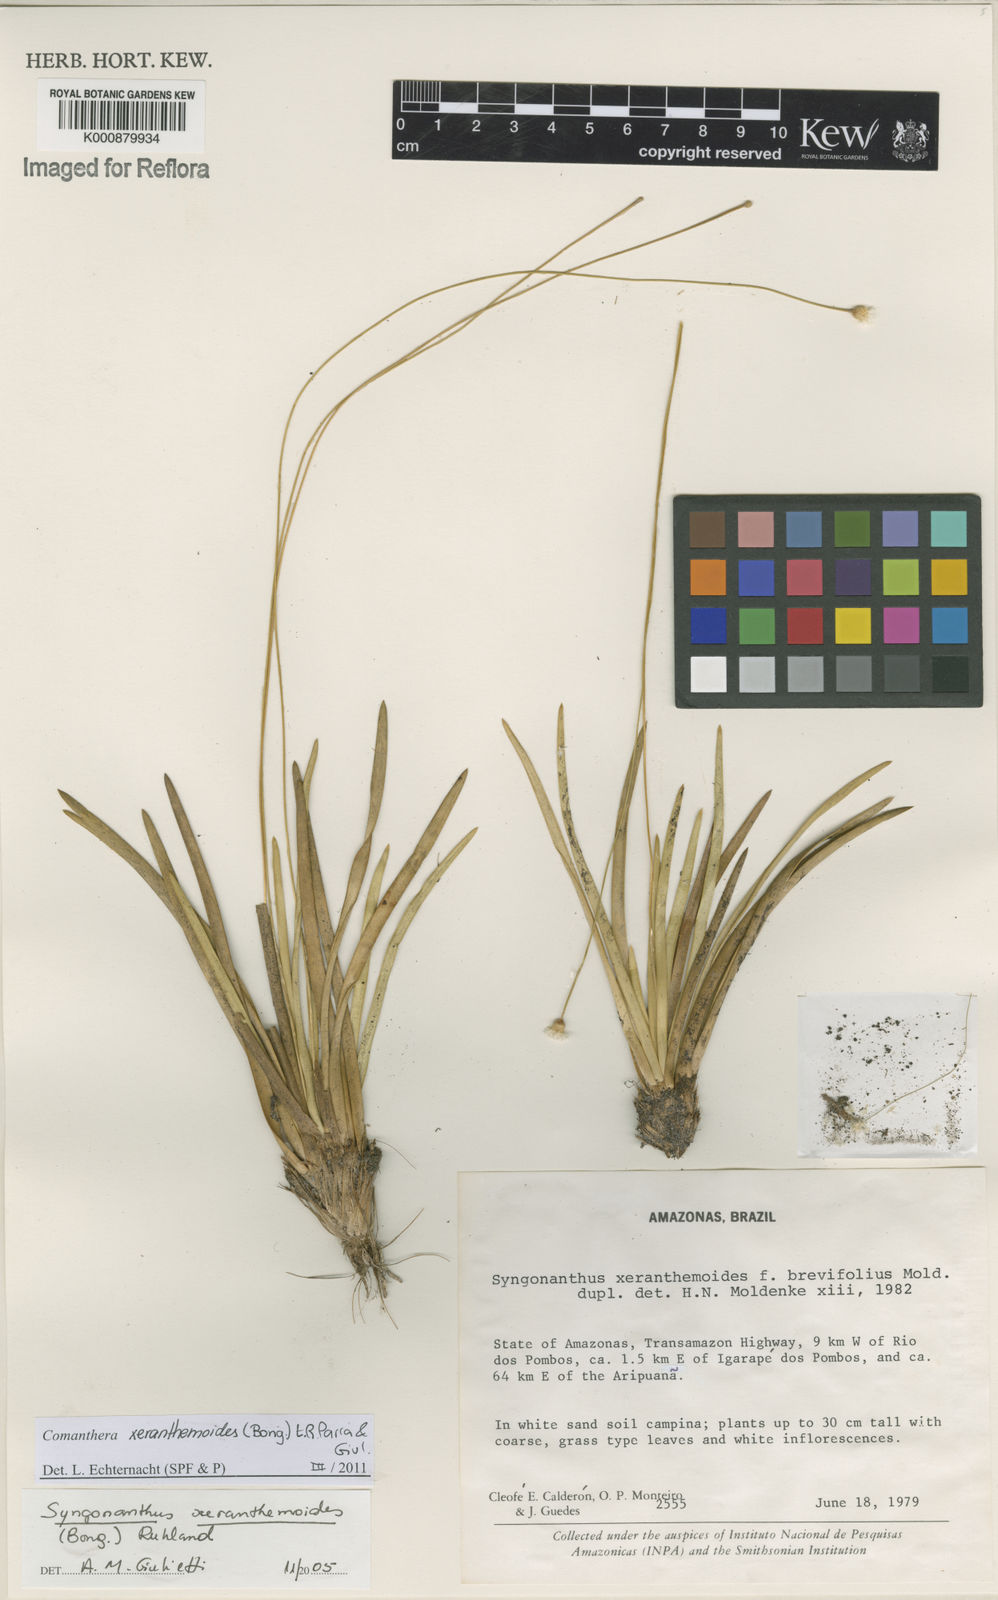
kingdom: Plantae
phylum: Tracheophyta
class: Liliopsida
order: Poales
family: Eriocaulaceae
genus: Comanthera
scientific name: Comanthera
